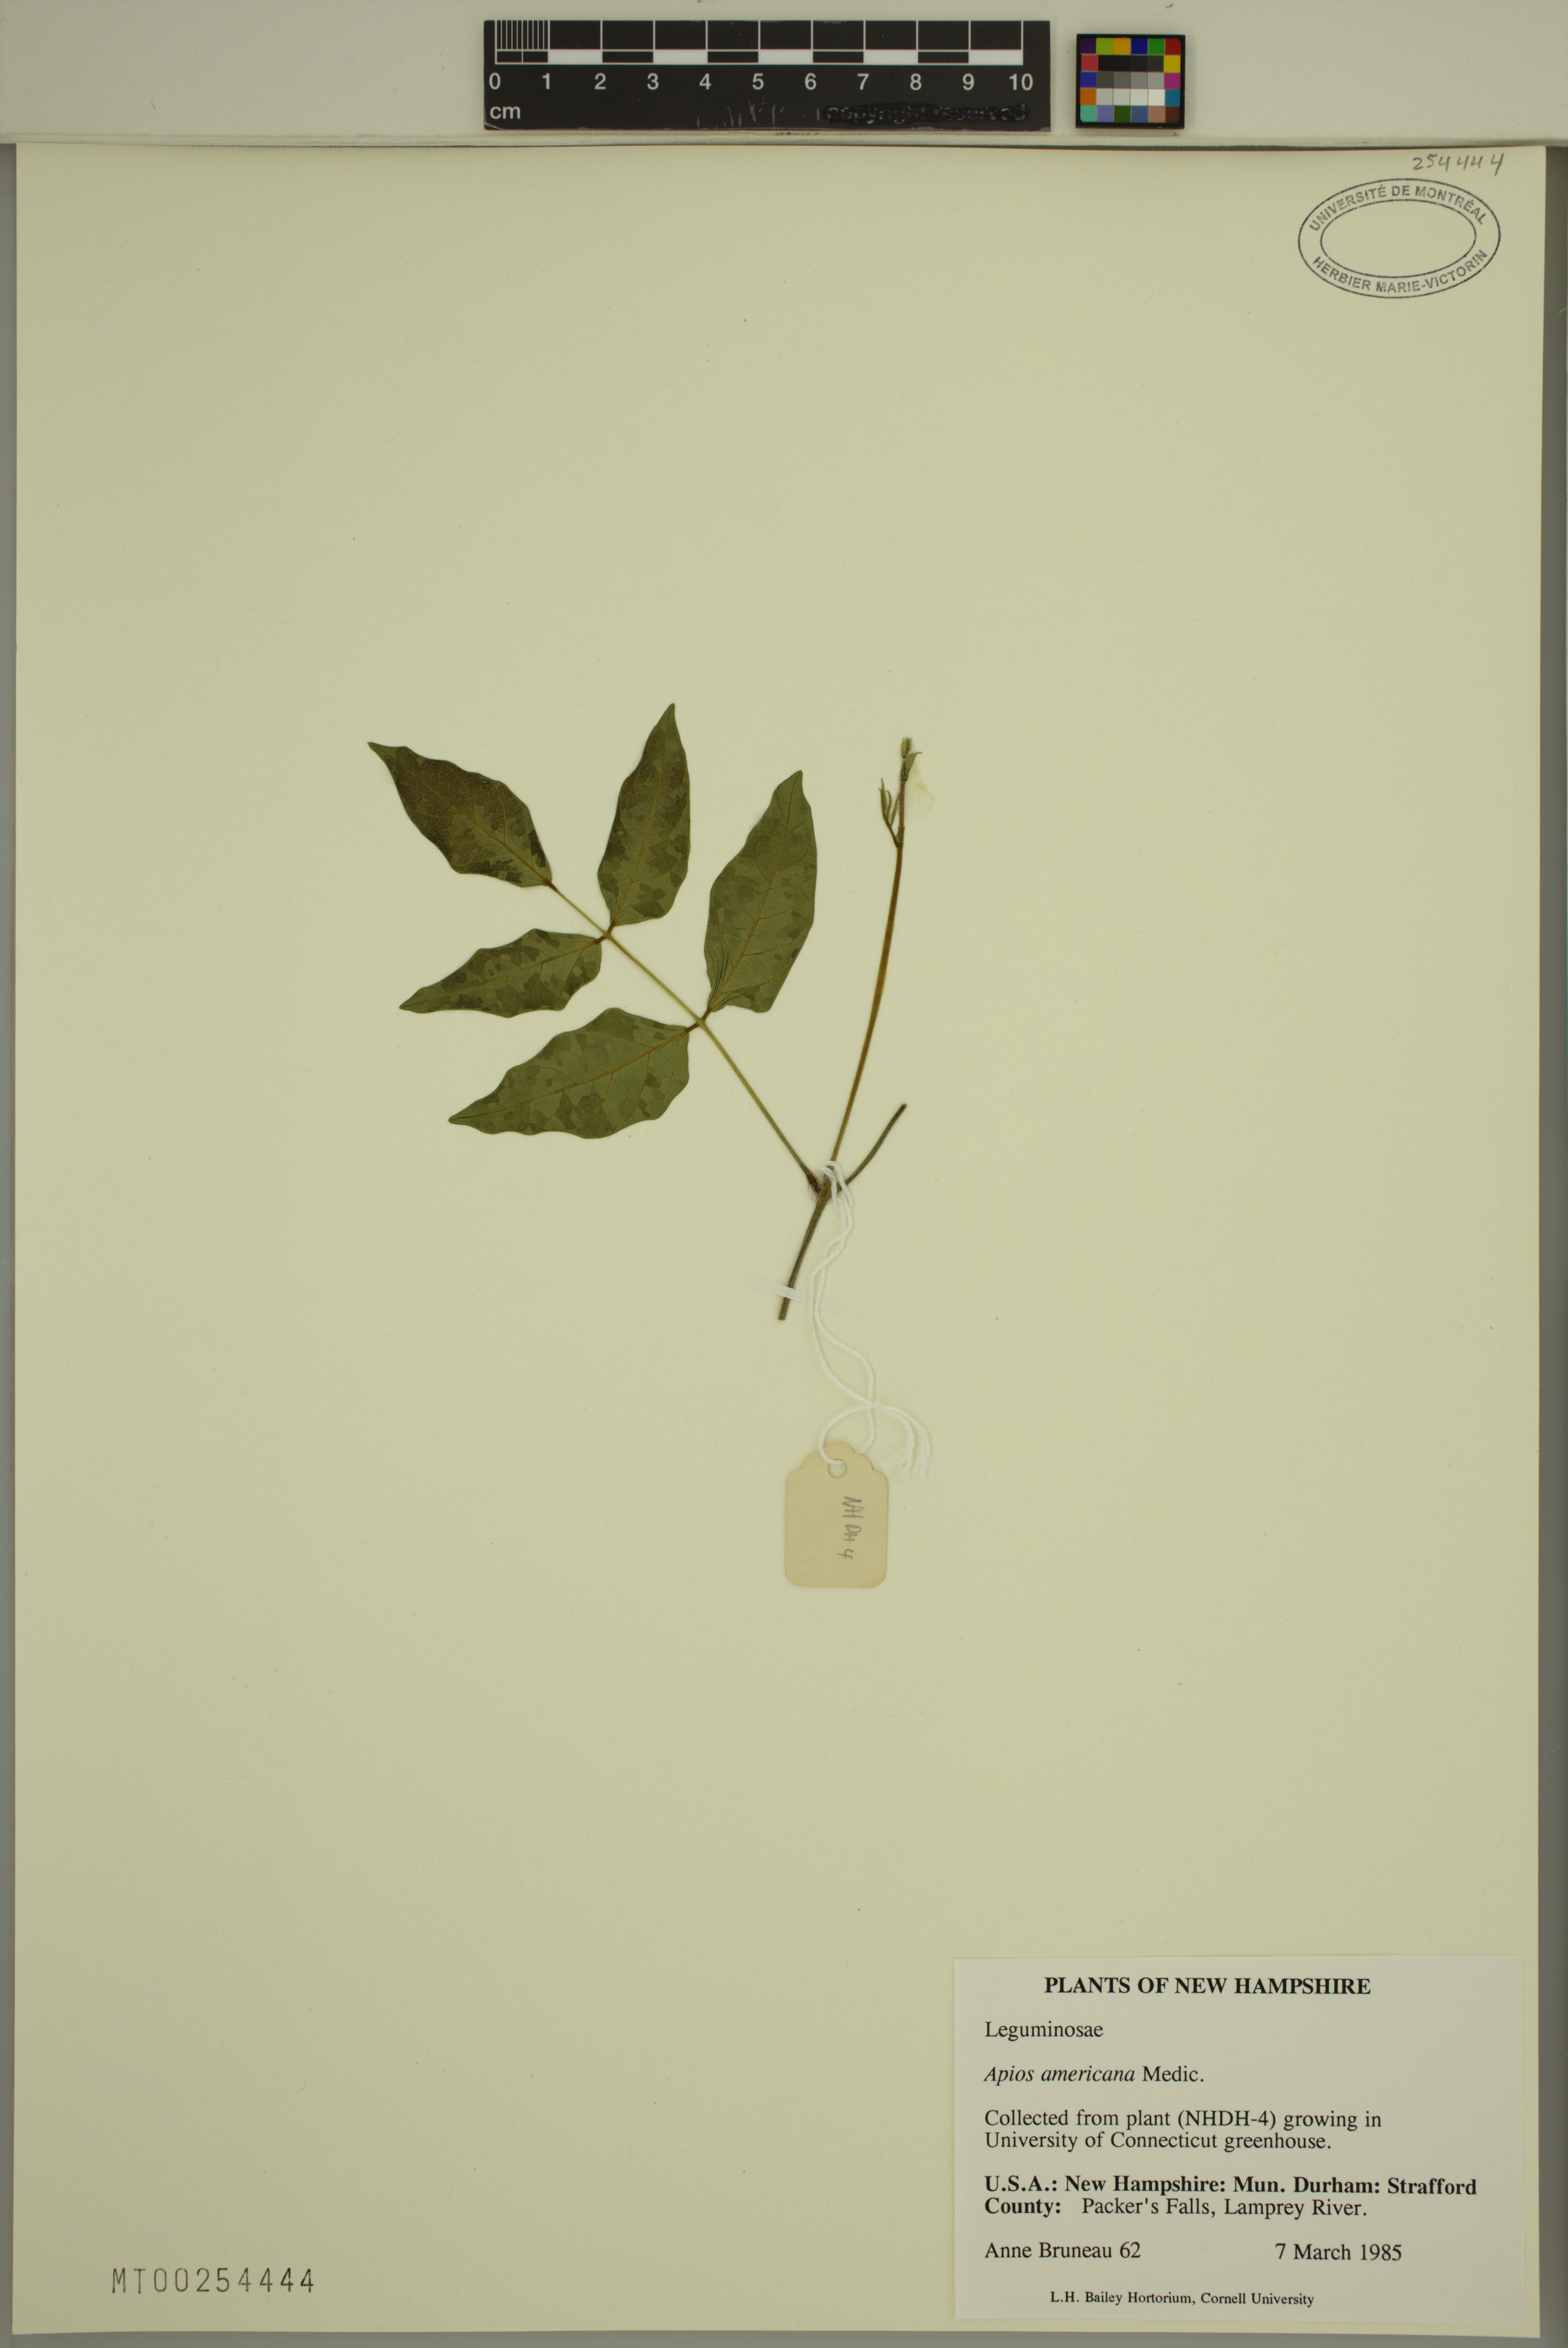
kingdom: Plantae
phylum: Tracheophyta
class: Magnoliopsida
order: Fabales
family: Fabaceae
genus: Apios
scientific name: Apios americana
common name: American potato-bean
